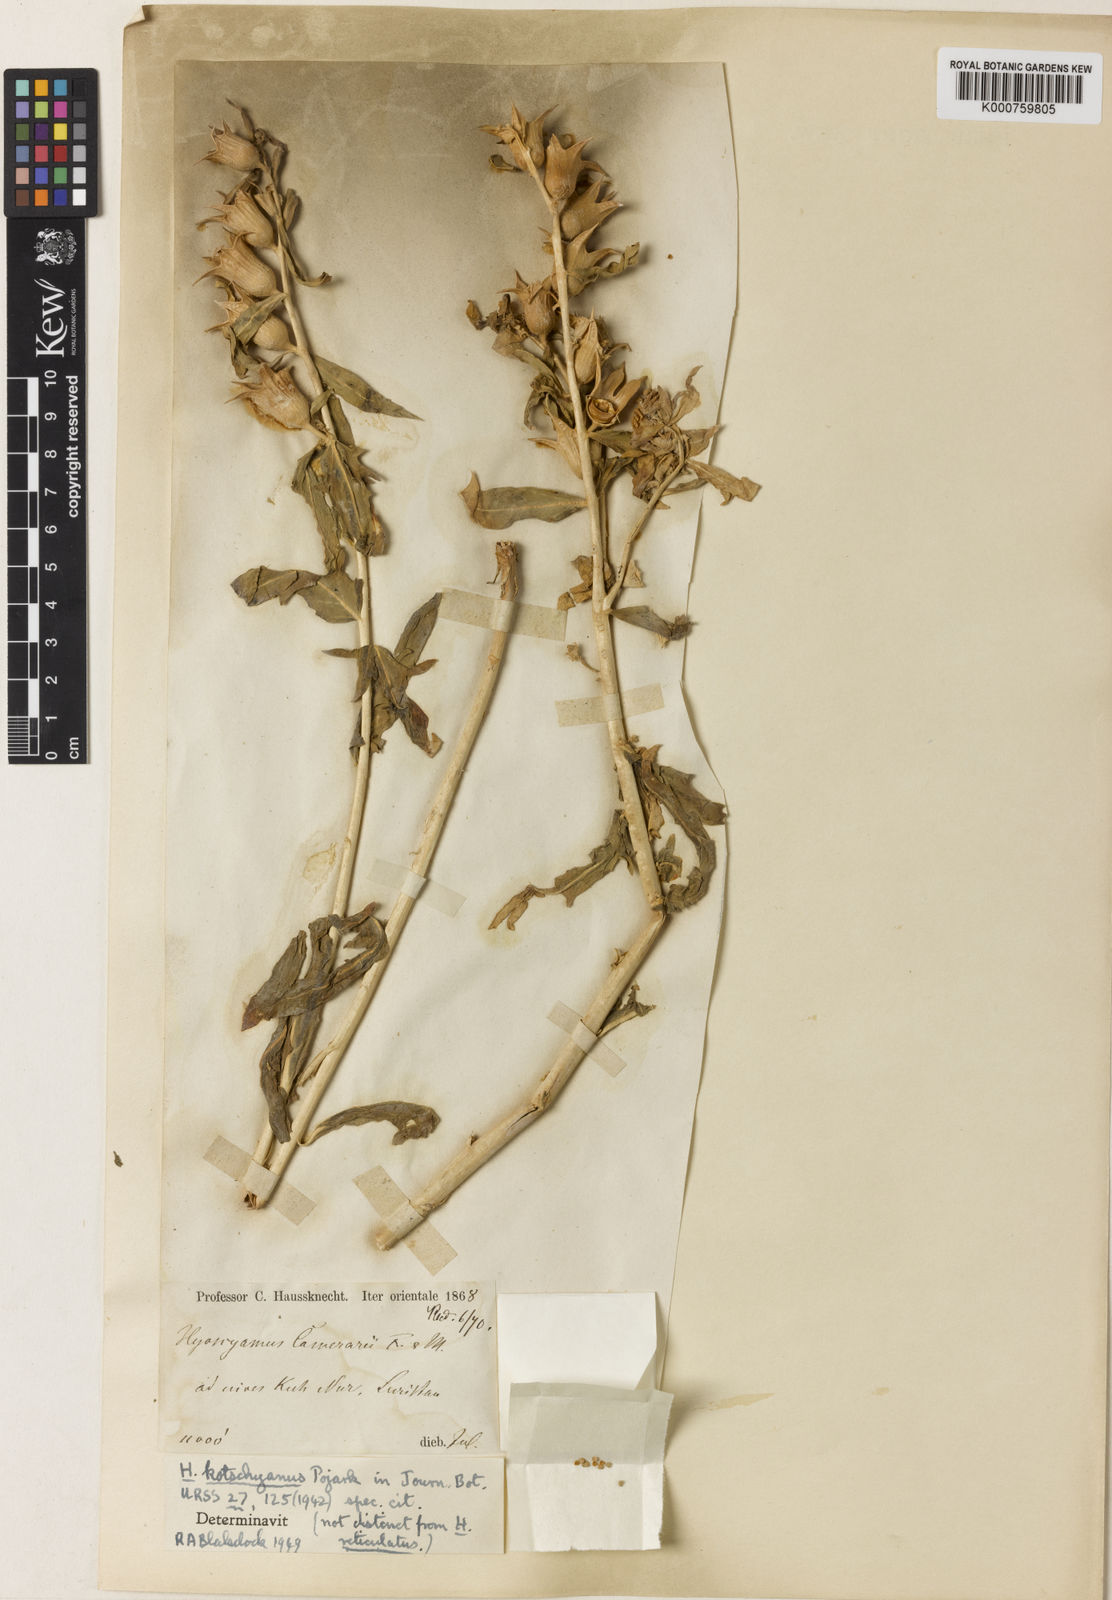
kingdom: Plantae
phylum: Tracheophyta
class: Magnoliopsida
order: Solanales
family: Solanaceae
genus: Hyoscyamus
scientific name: Hyoscyamus kotschyanus
